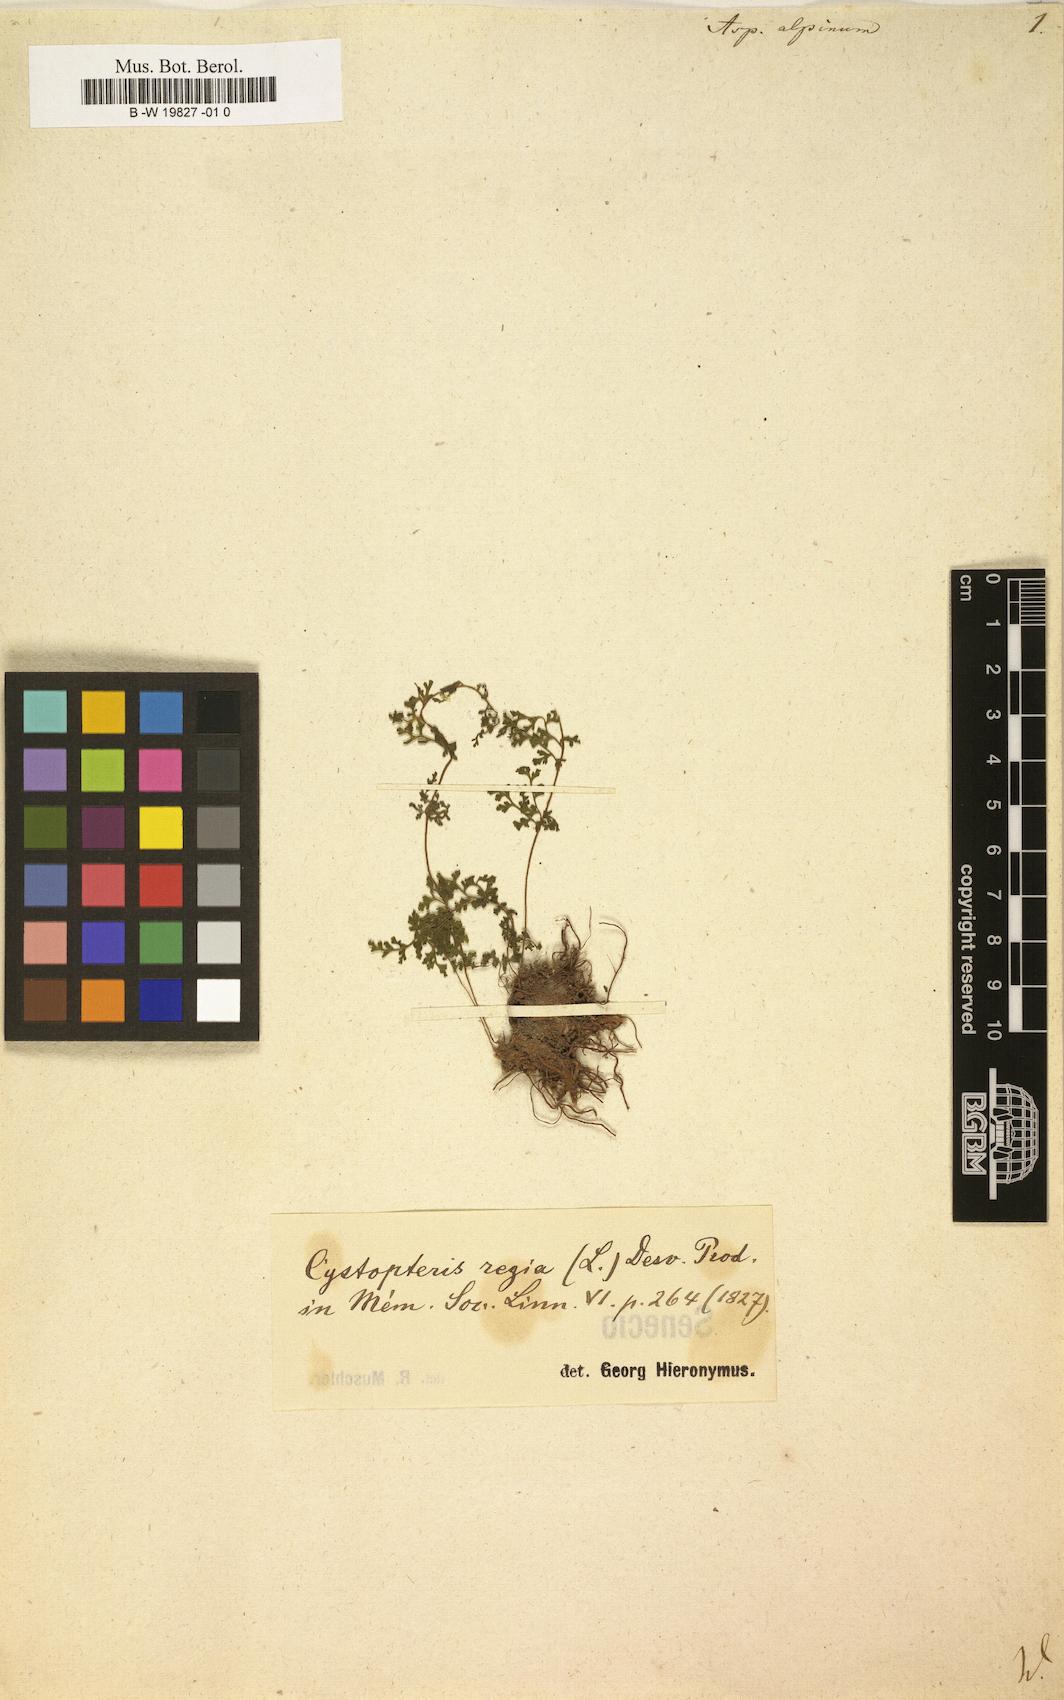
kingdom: Plantae
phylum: Tracheophyta
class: Polypodiopsida
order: Polypodiales
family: Cystopteridaceae
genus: Cystopteris
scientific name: Cystopteris alpina
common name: Alpine bladder-fern
